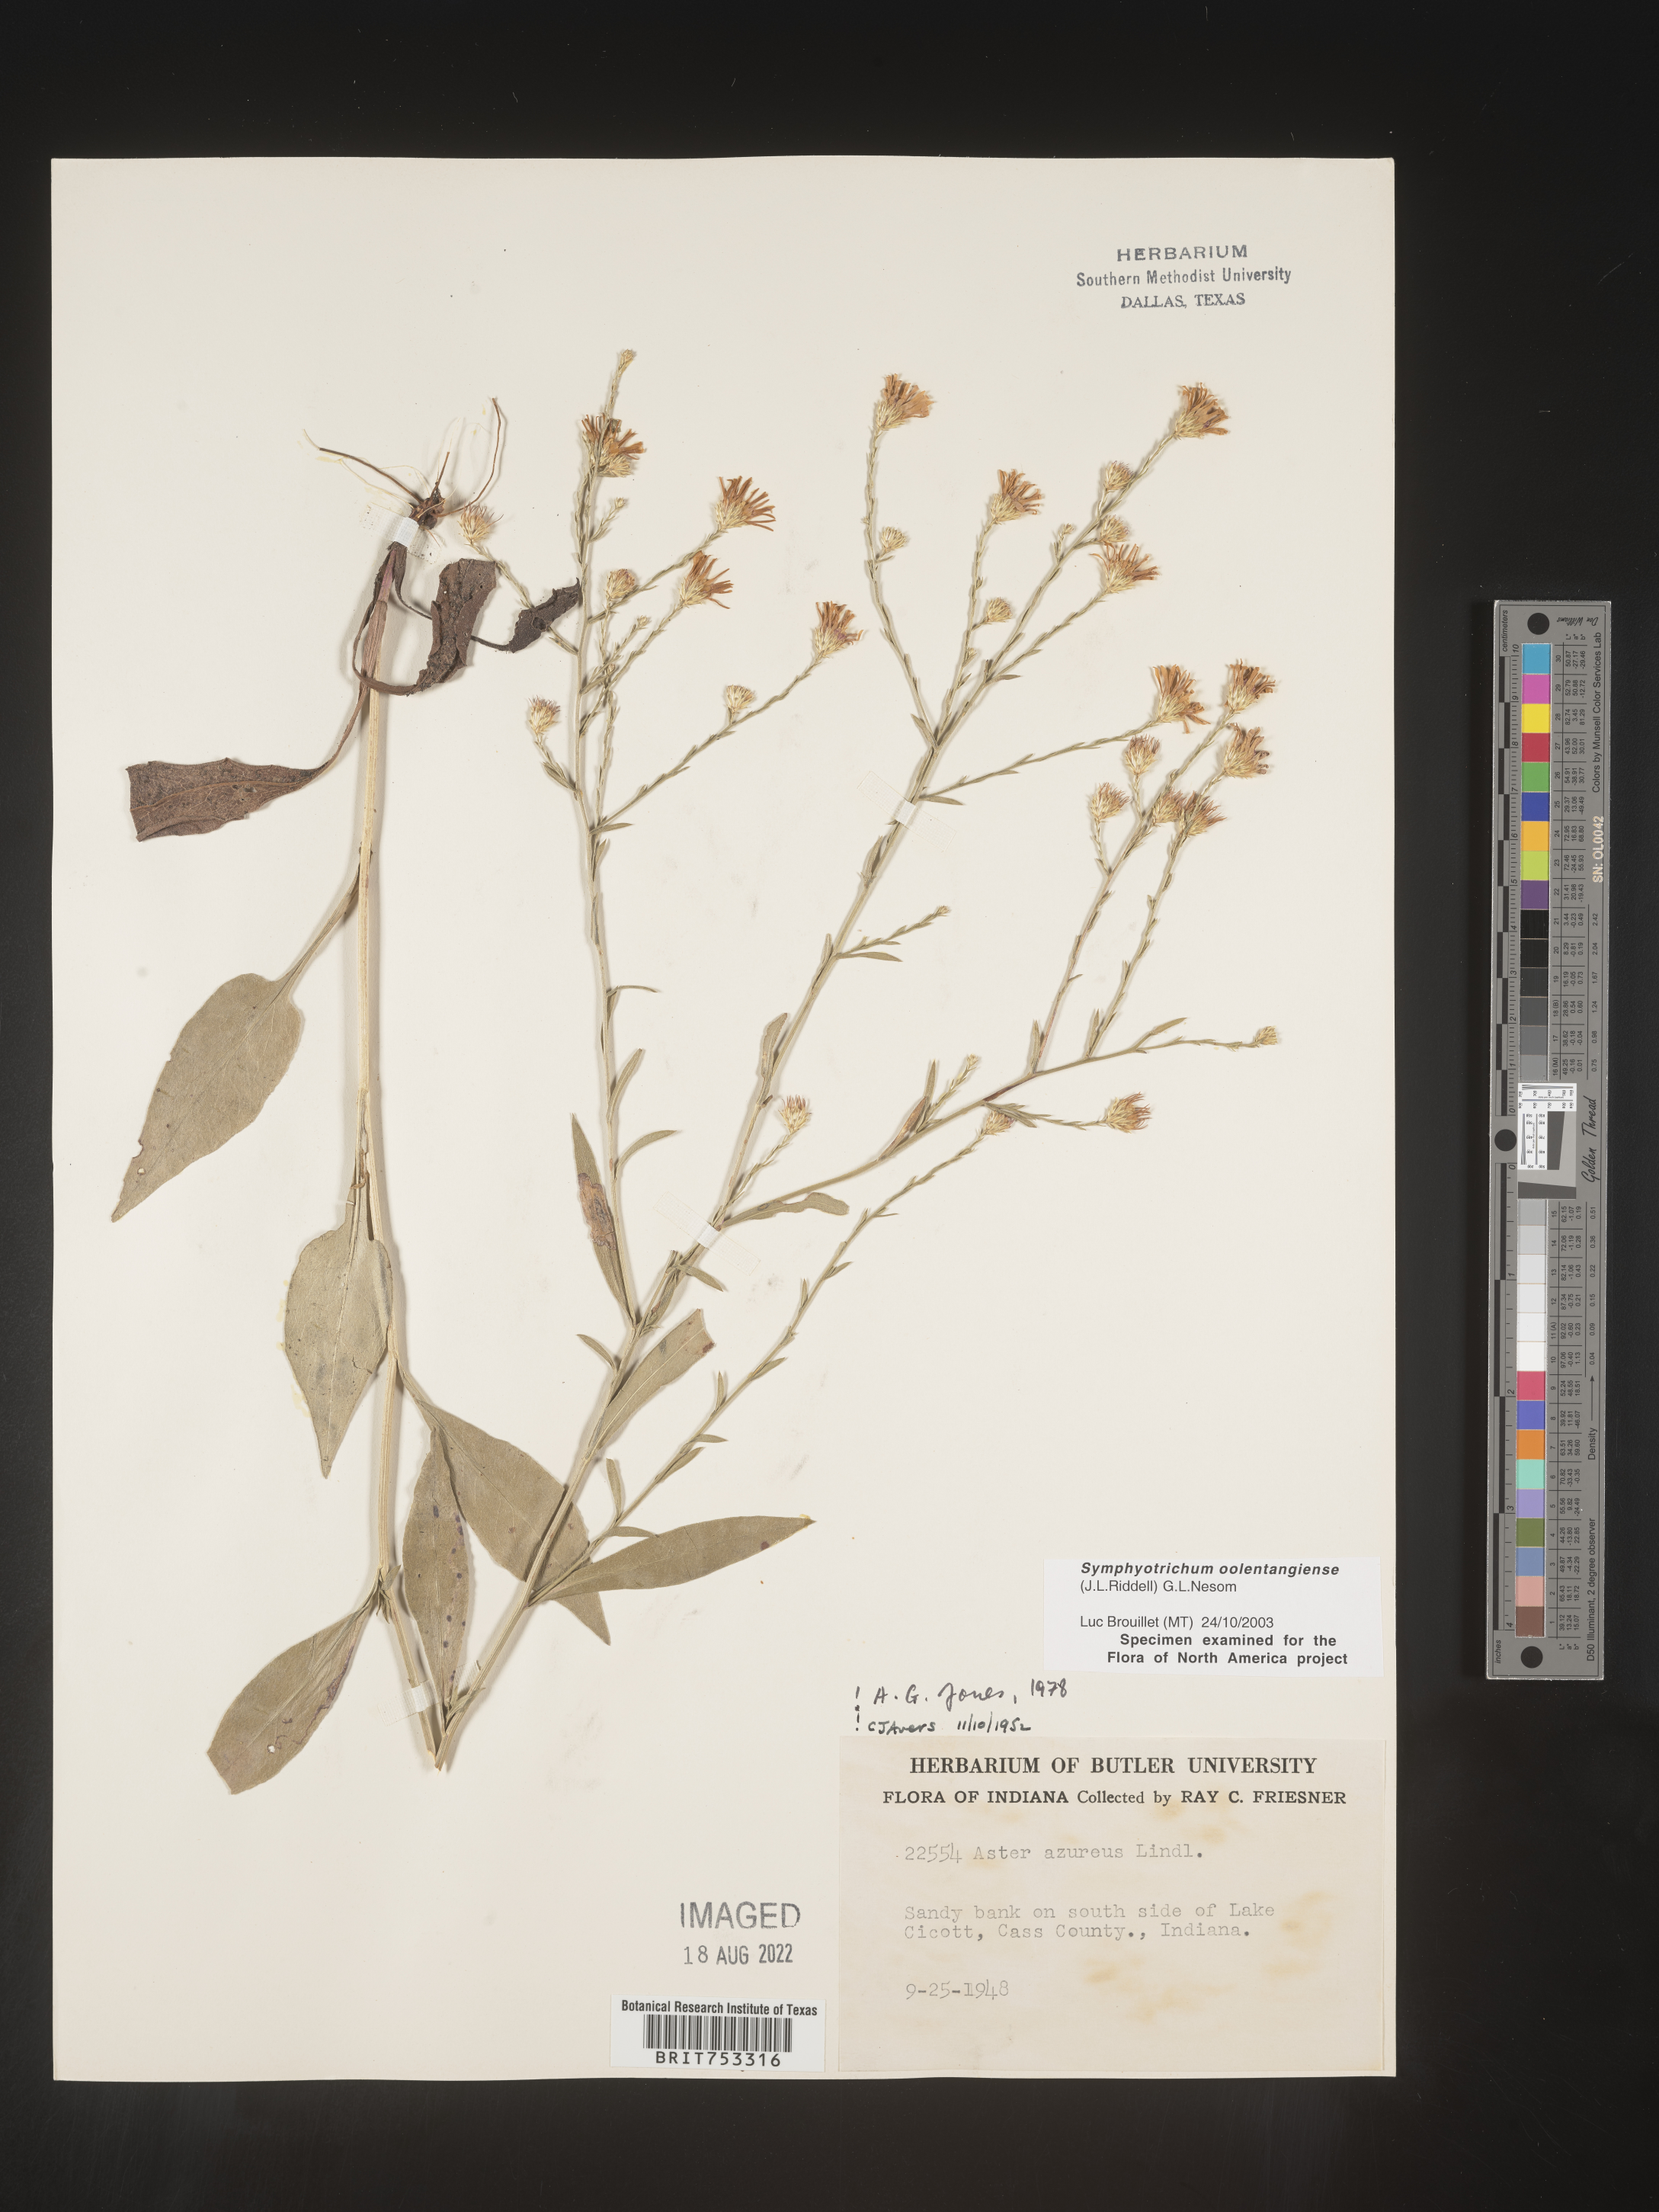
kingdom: Plantae
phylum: Tracheophyta
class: Magnoliopsida
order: Asterales
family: Asteraceae
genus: Symphyotrichum
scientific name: Symphyotrichum oolentangiense
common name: Azure aster
